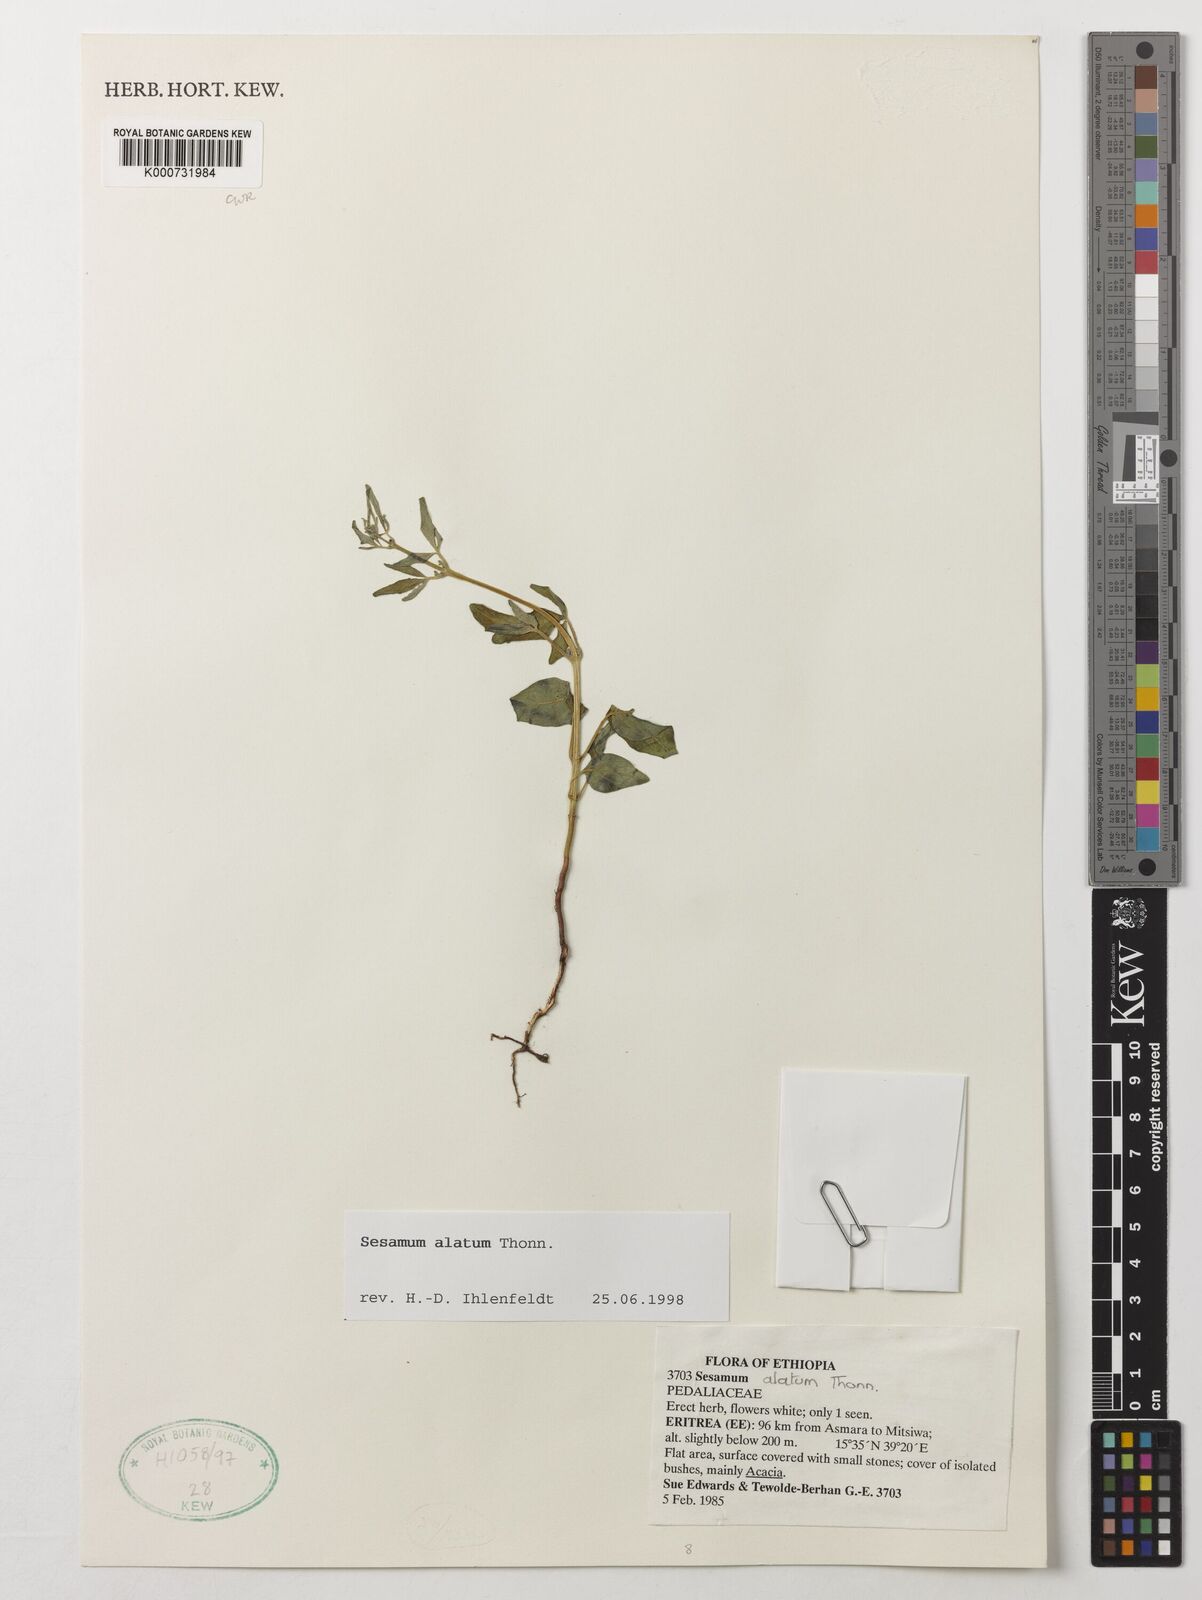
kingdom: Plantae
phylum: Tracheophyta
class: Magnoliopsida
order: Lamiales
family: Pedaliaceae
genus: Sesamum
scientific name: Sesamum alatum
